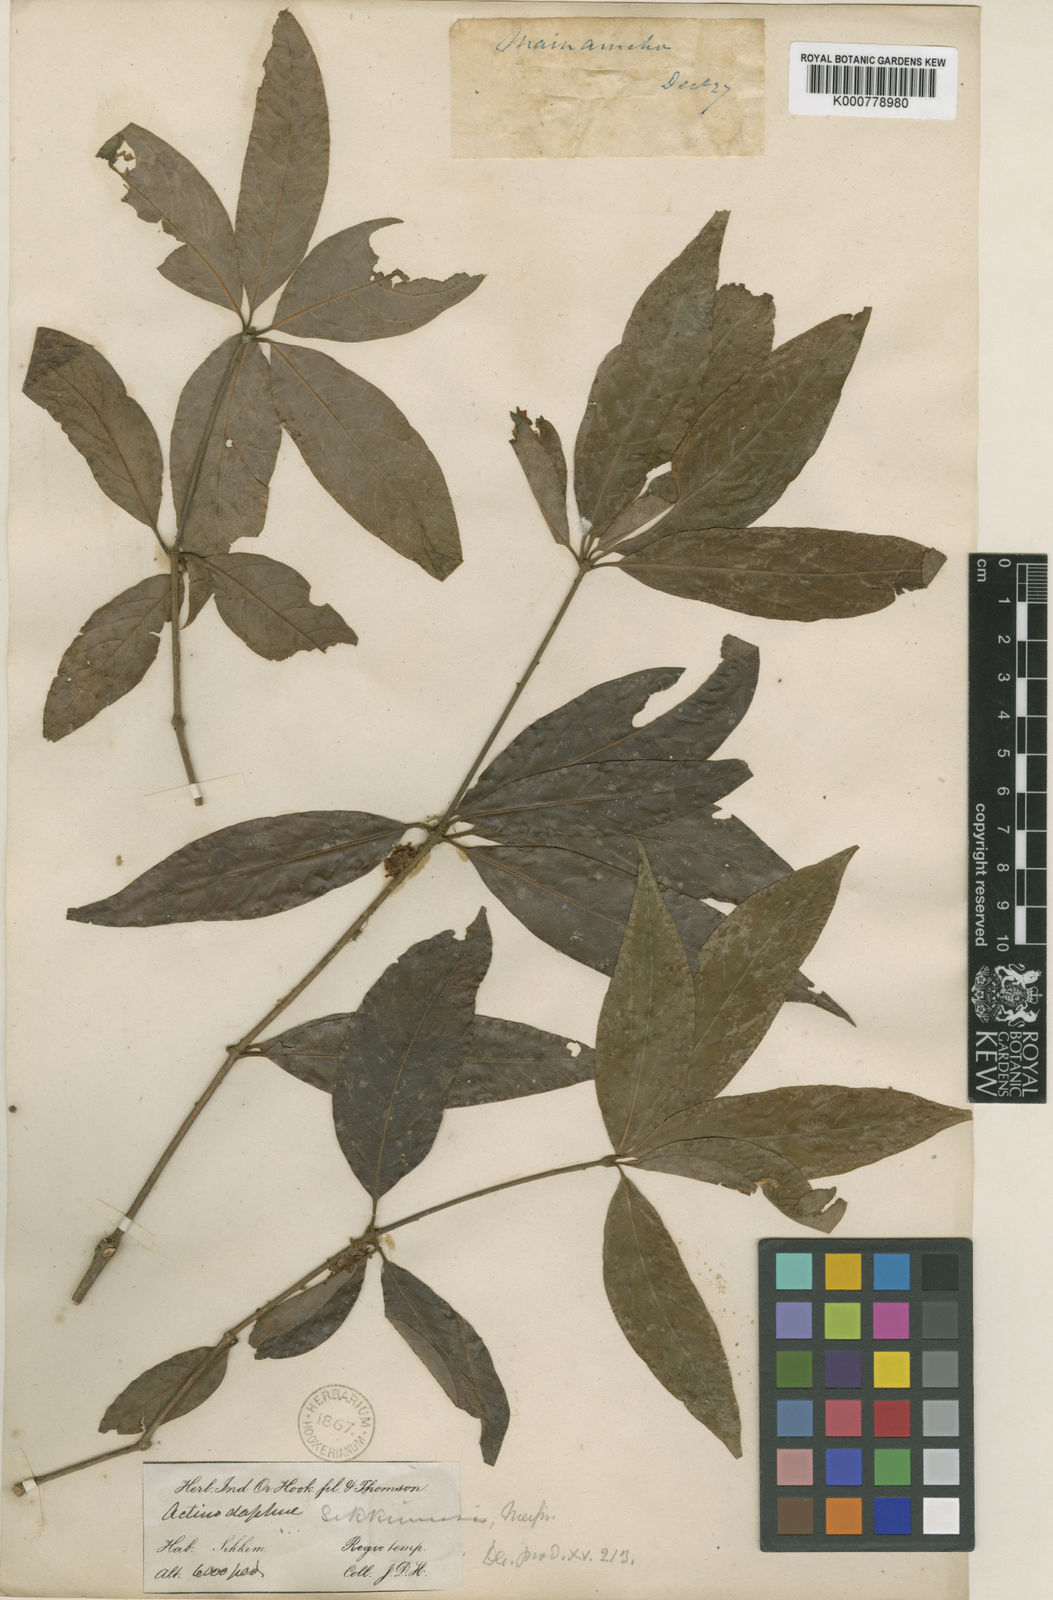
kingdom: Plantae
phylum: Tracheophyta
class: Magnoliopsida
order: Laurales
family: Lauraceae
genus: Actinodaphne
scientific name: Actinodaphne sikkimensis
